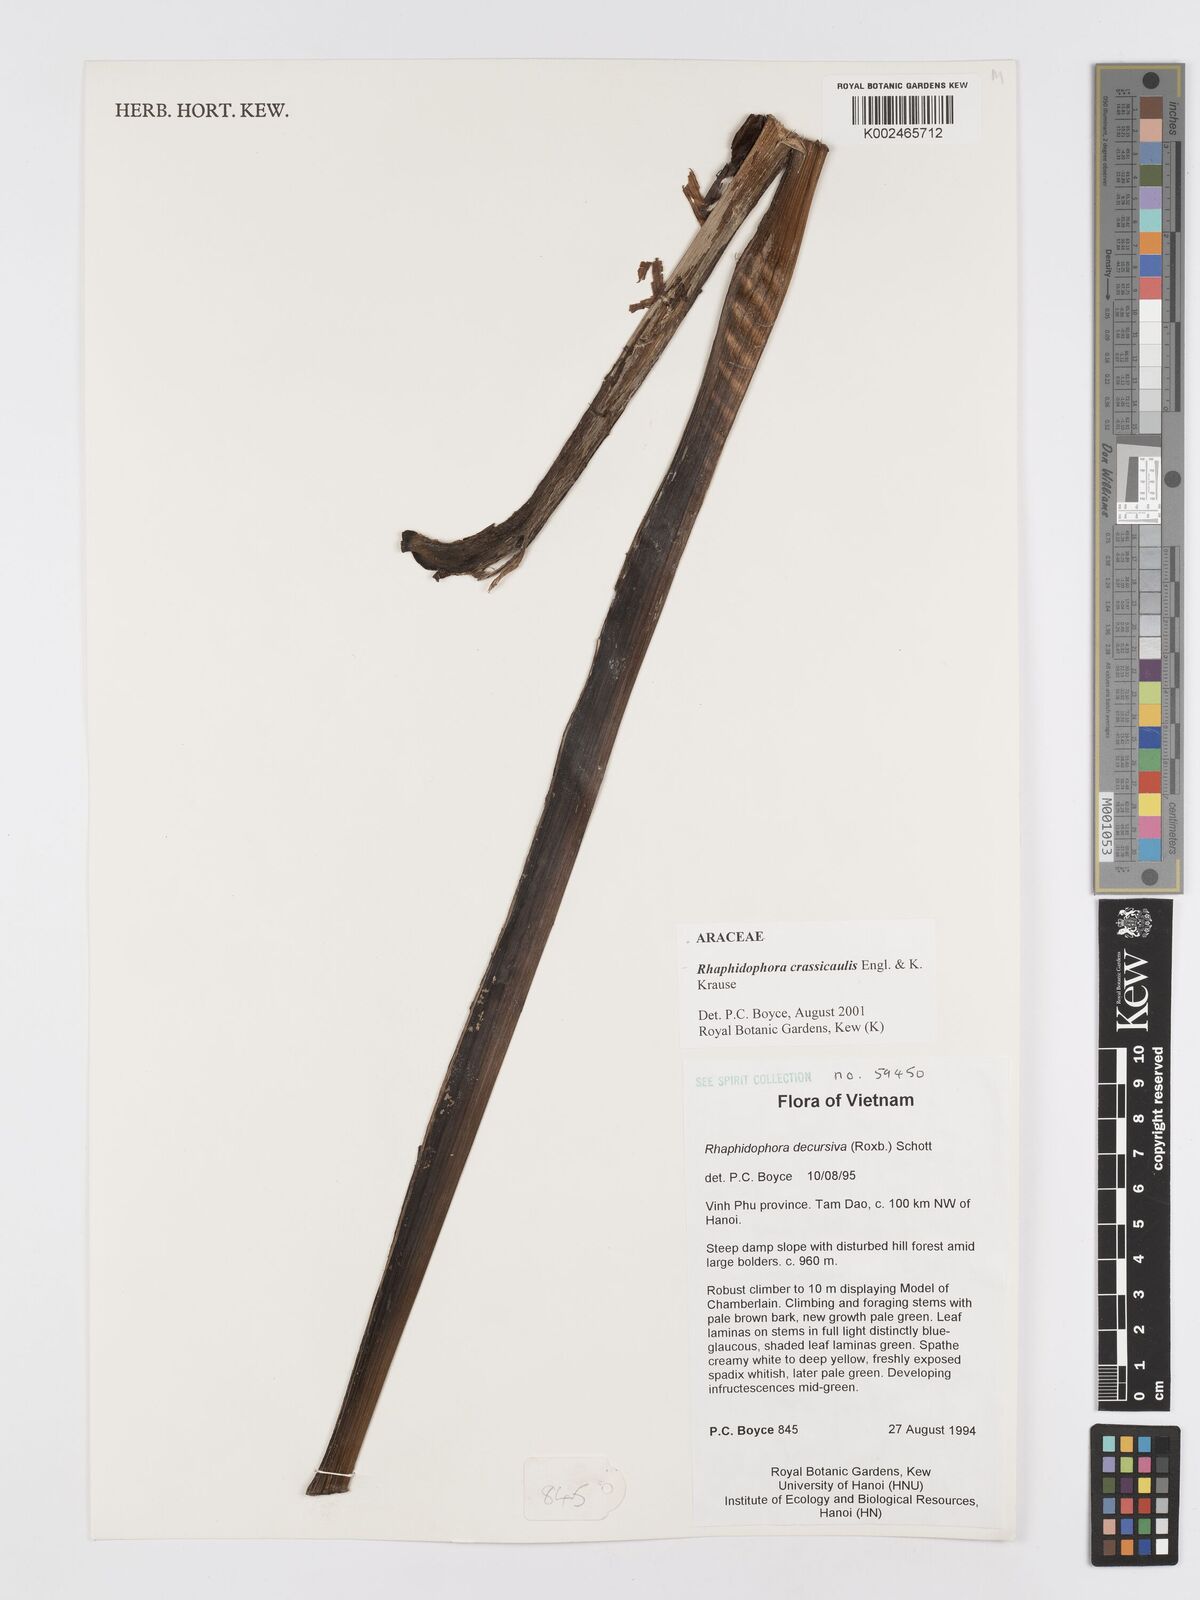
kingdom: Plantae
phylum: Tracheophyta
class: Liliopsida
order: Alismatales
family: Araceae
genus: Rhaphidophora
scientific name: Rhaphidophora crassicaulis
